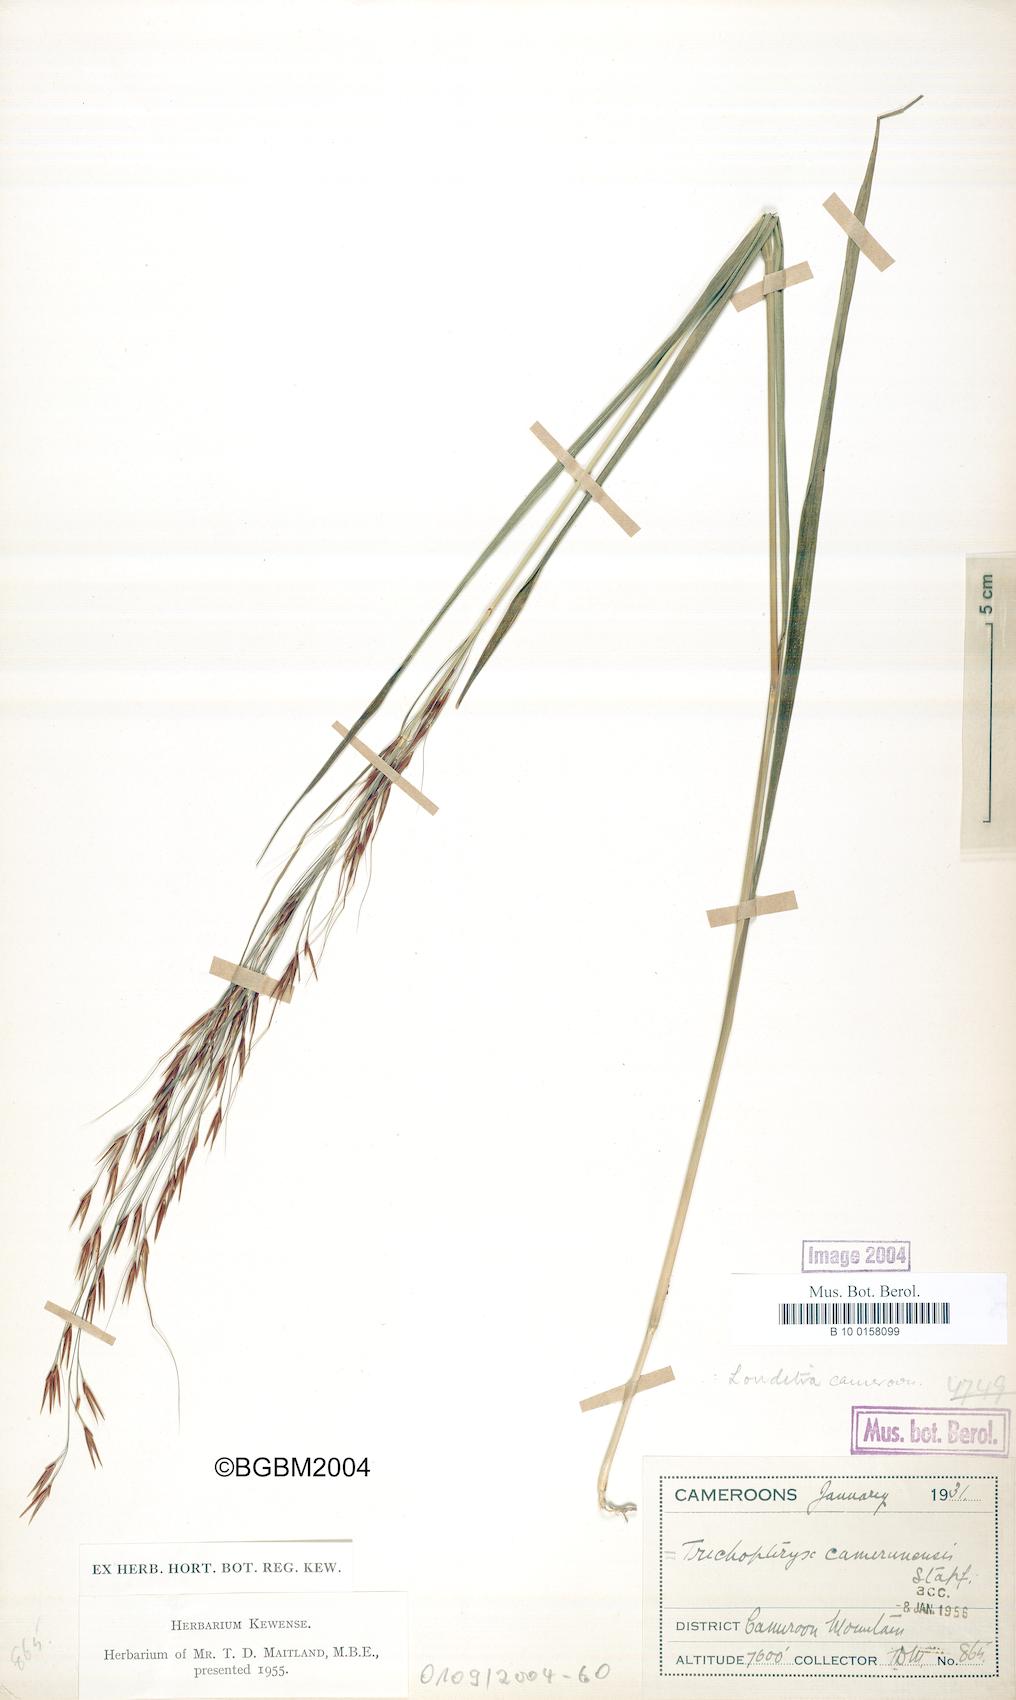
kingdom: Plantae
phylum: Tracheophyta
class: Liliopsida
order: Poales
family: Poaceae
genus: Loudetia
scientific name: Loudetia simplex
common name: Common russet grass
